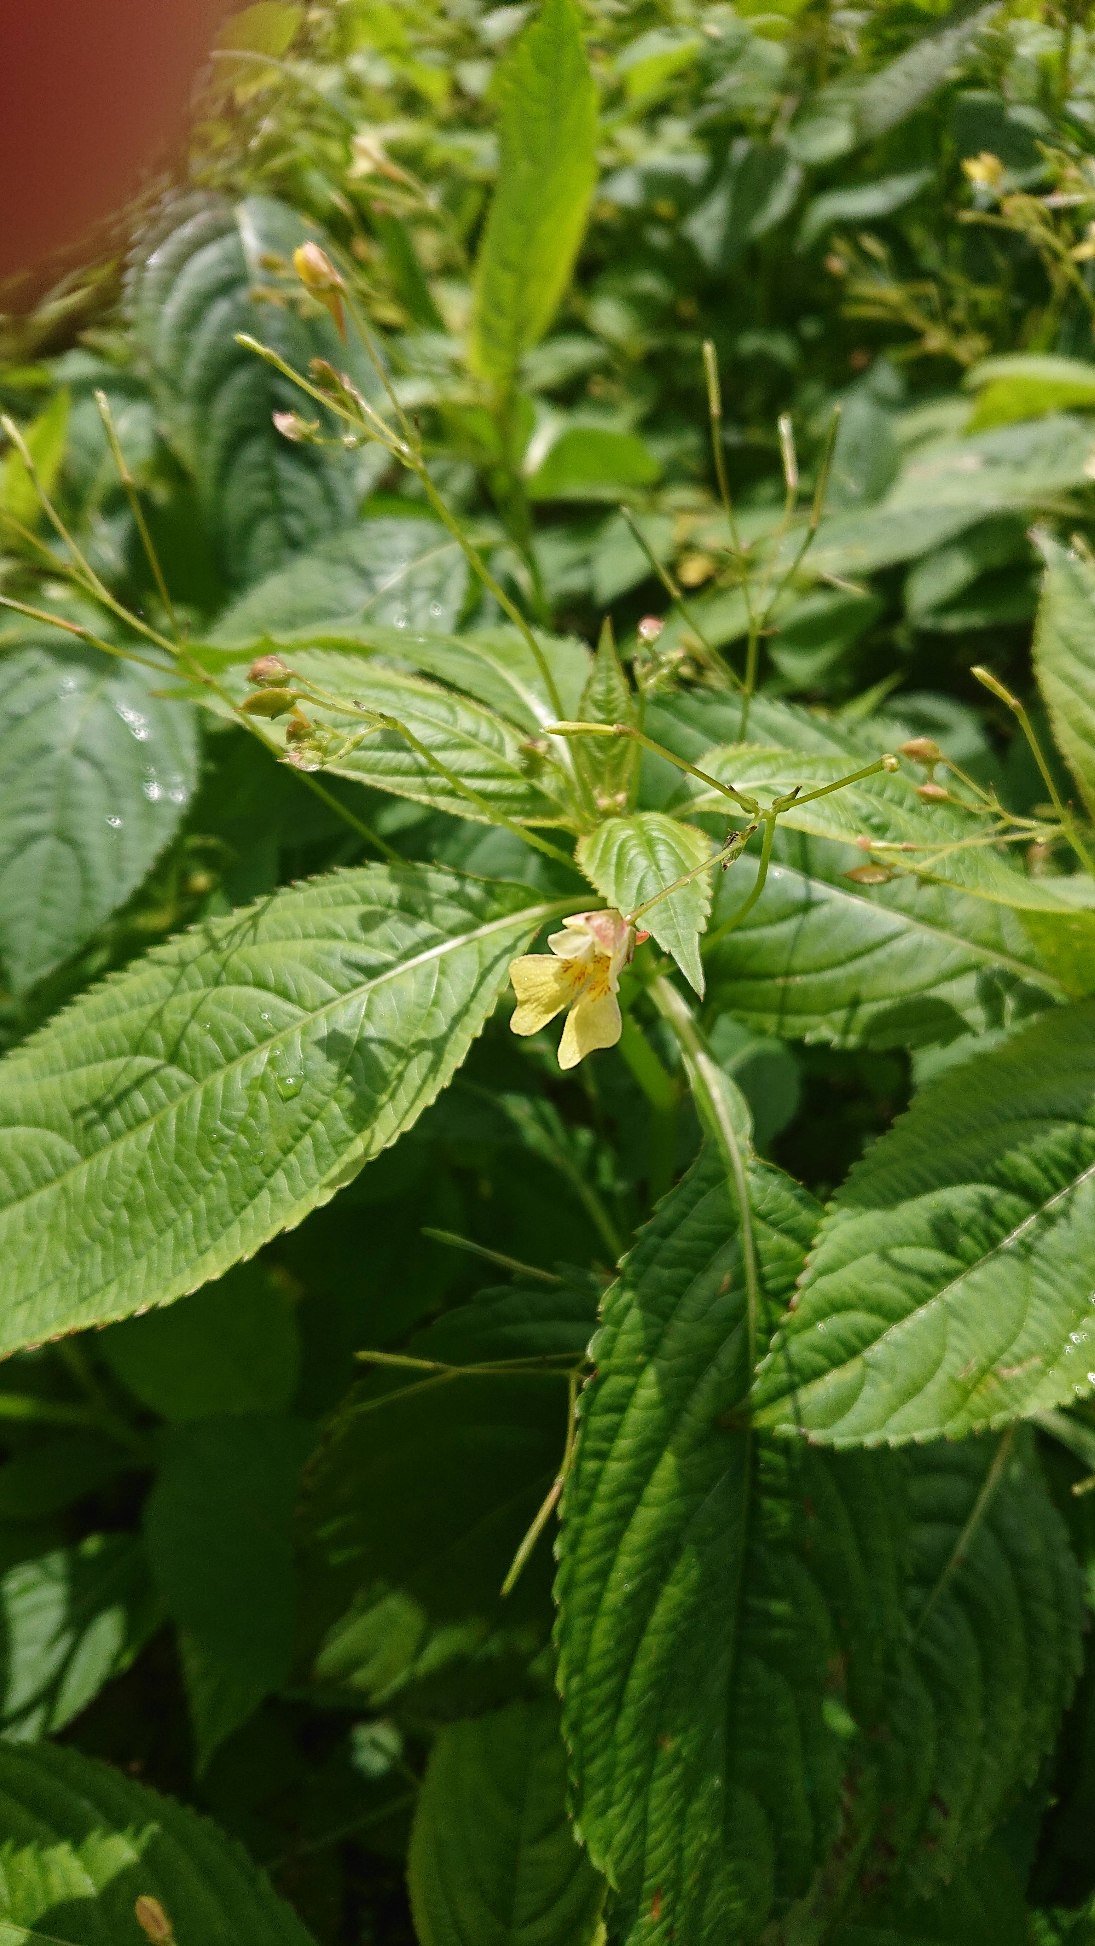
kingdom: Plantae
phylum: Tracheophyta
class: Magnoliopsida
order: Ericales
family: Balsaminaceae
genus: Impatiens
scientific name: Impatiens parviflora
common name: Småblomstret balsamin
